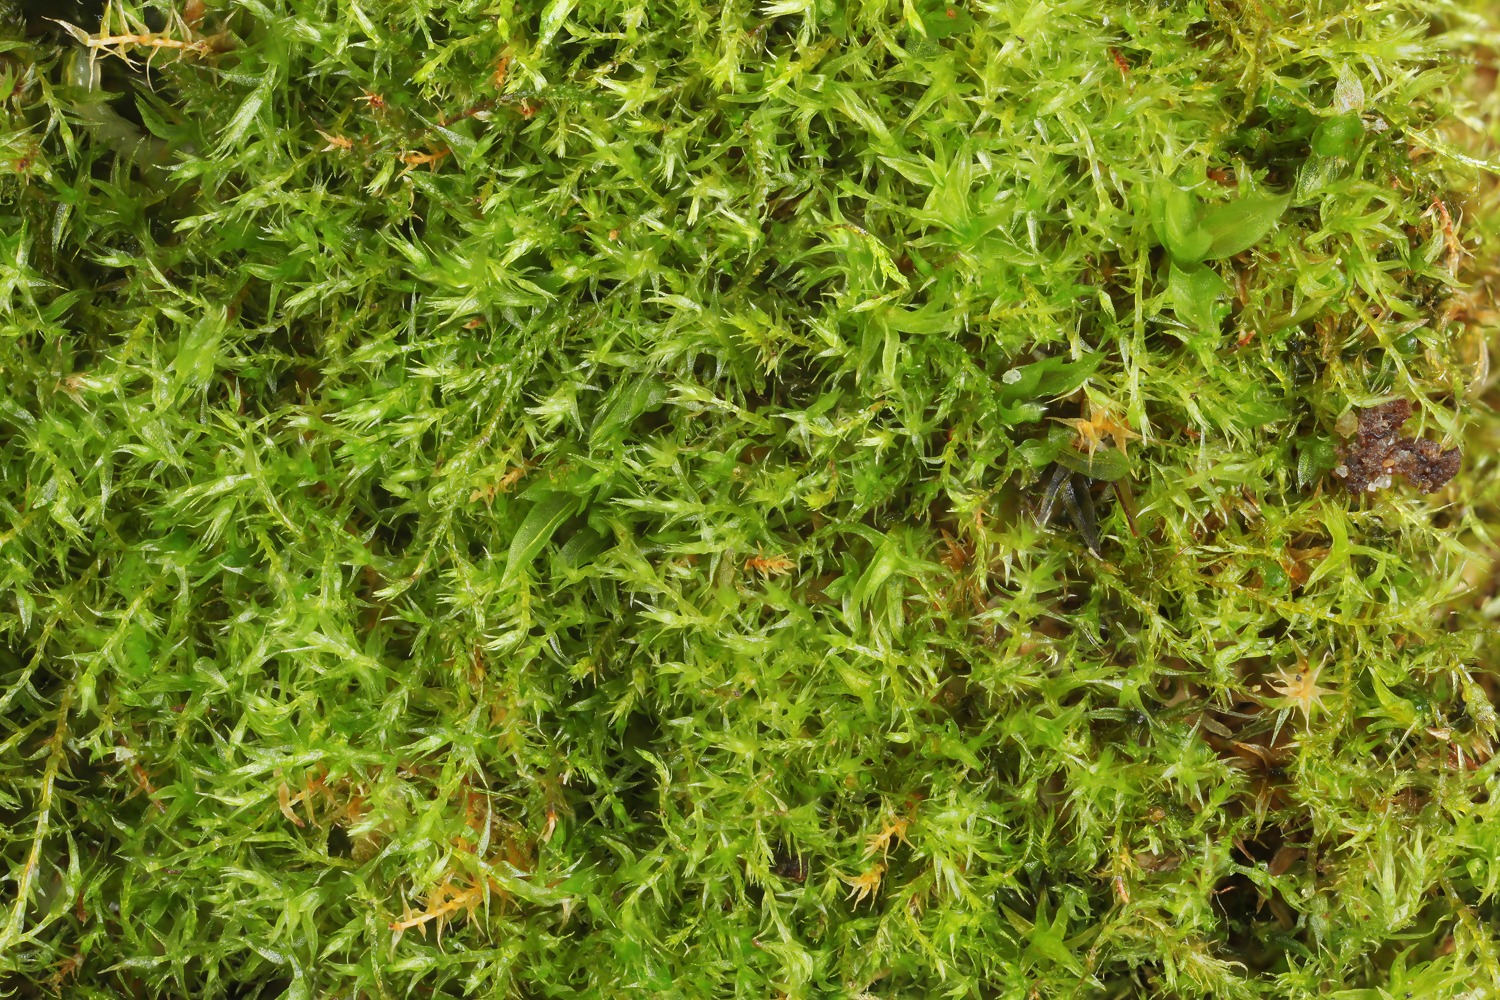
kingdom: Plantae
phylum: Bryophyta
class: Bryopsida
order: Hypnales
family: Amblystegiaceae
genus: Conardia
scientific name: Conardia compacta
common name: Tråd-spædmos
